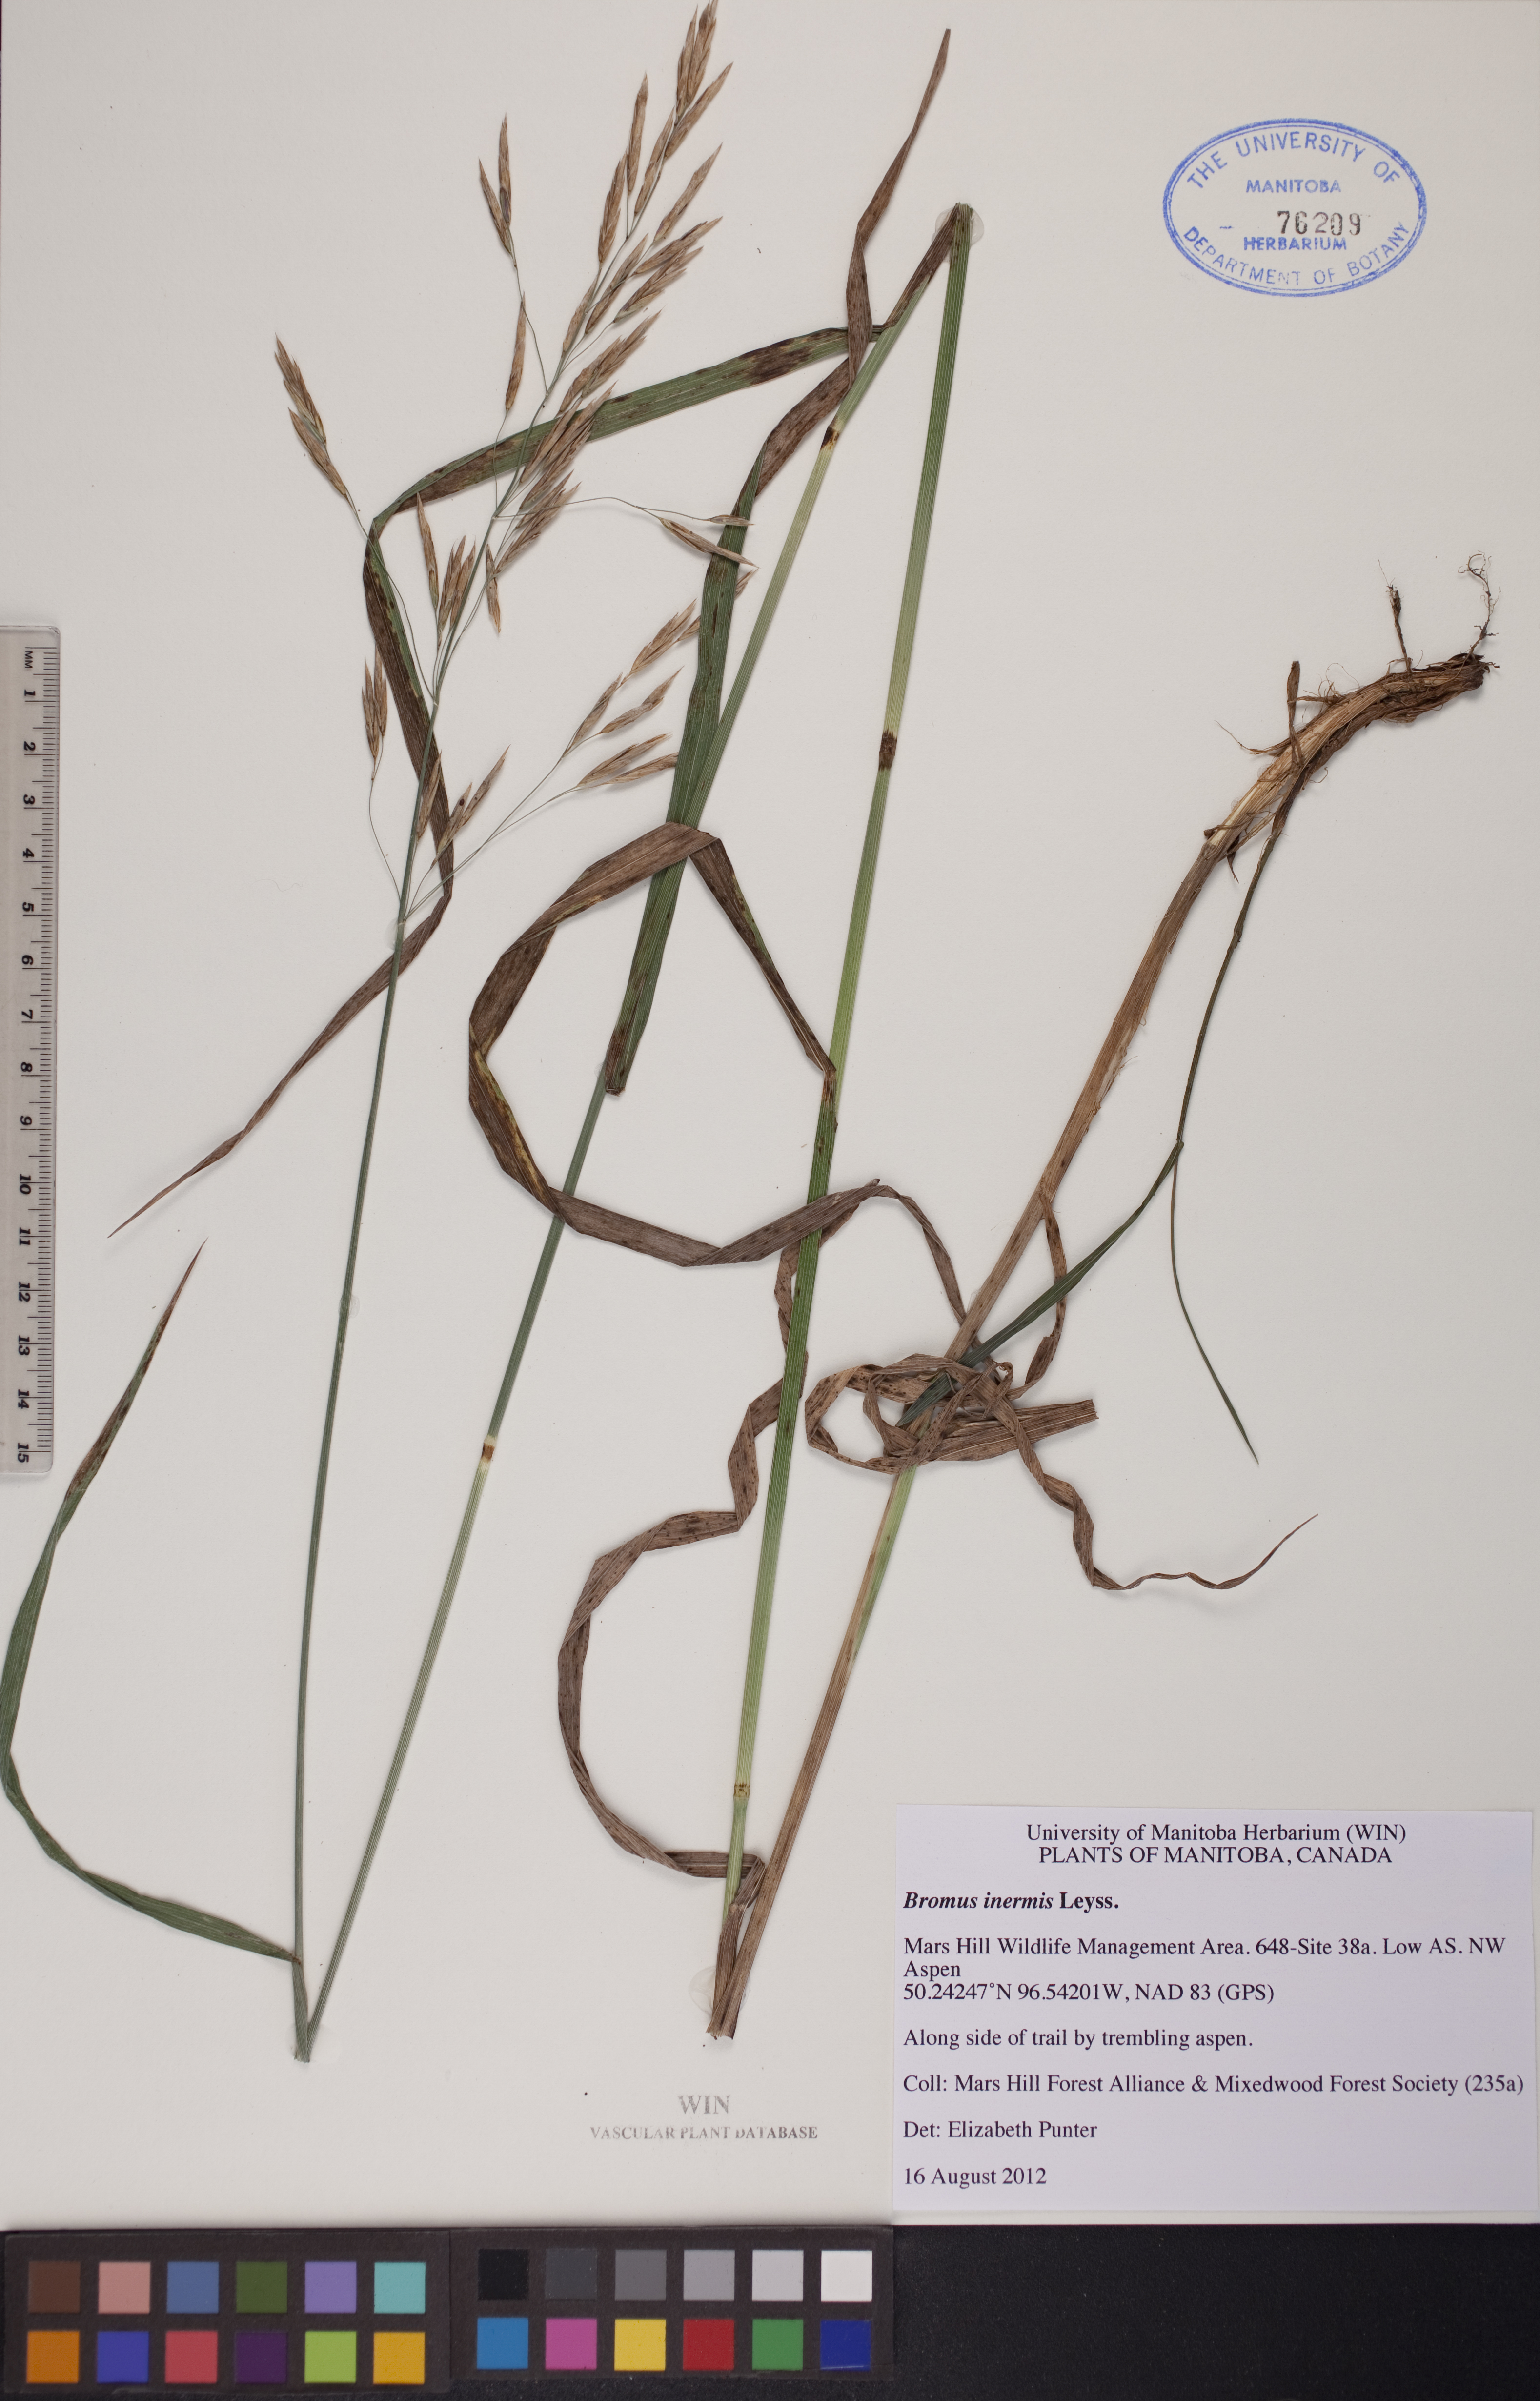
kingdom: Plantae
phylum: Tracheophyta
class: Liliopsida
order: Poales
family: Poaceae
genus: Bromus
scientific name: Bromus inermis
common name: Smooth brome
